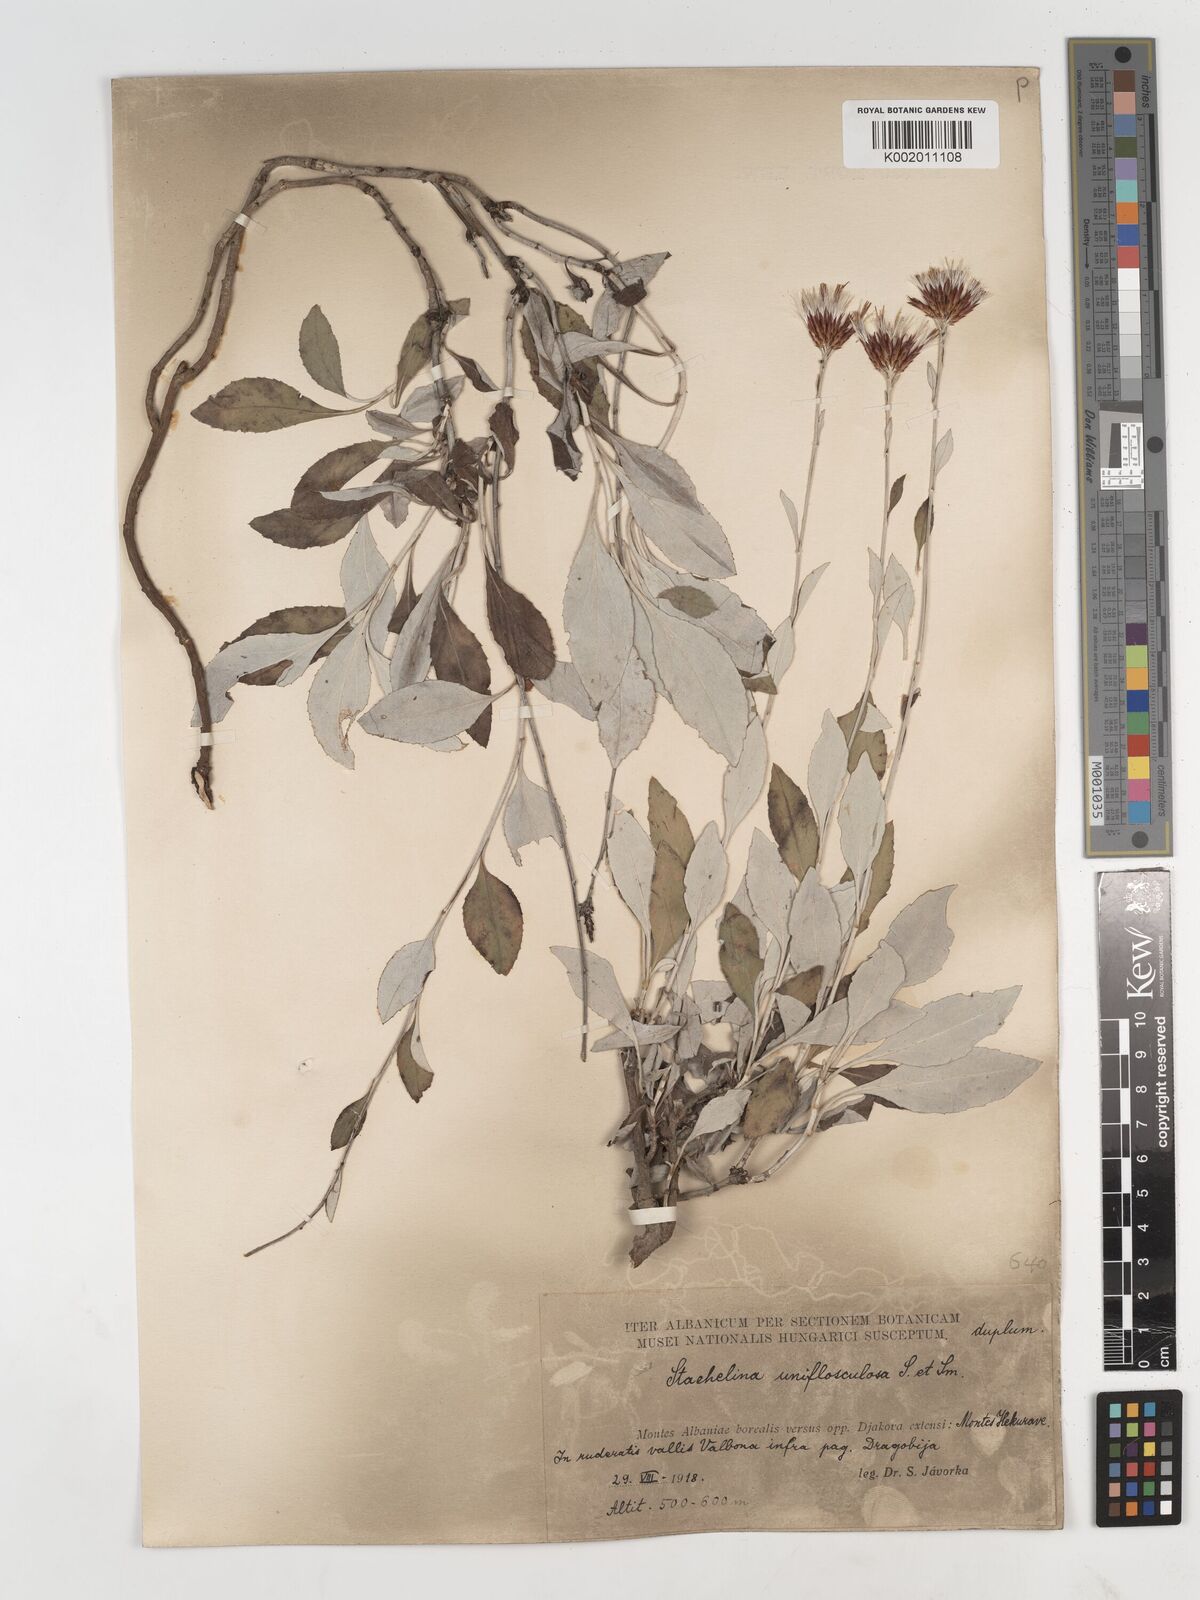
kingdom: Plantae
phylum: Tracheophyta
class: Magnoliopsida
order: Asterales
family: Asteraceae
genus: Staehelina
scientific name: Staehelina uniflosculosa
